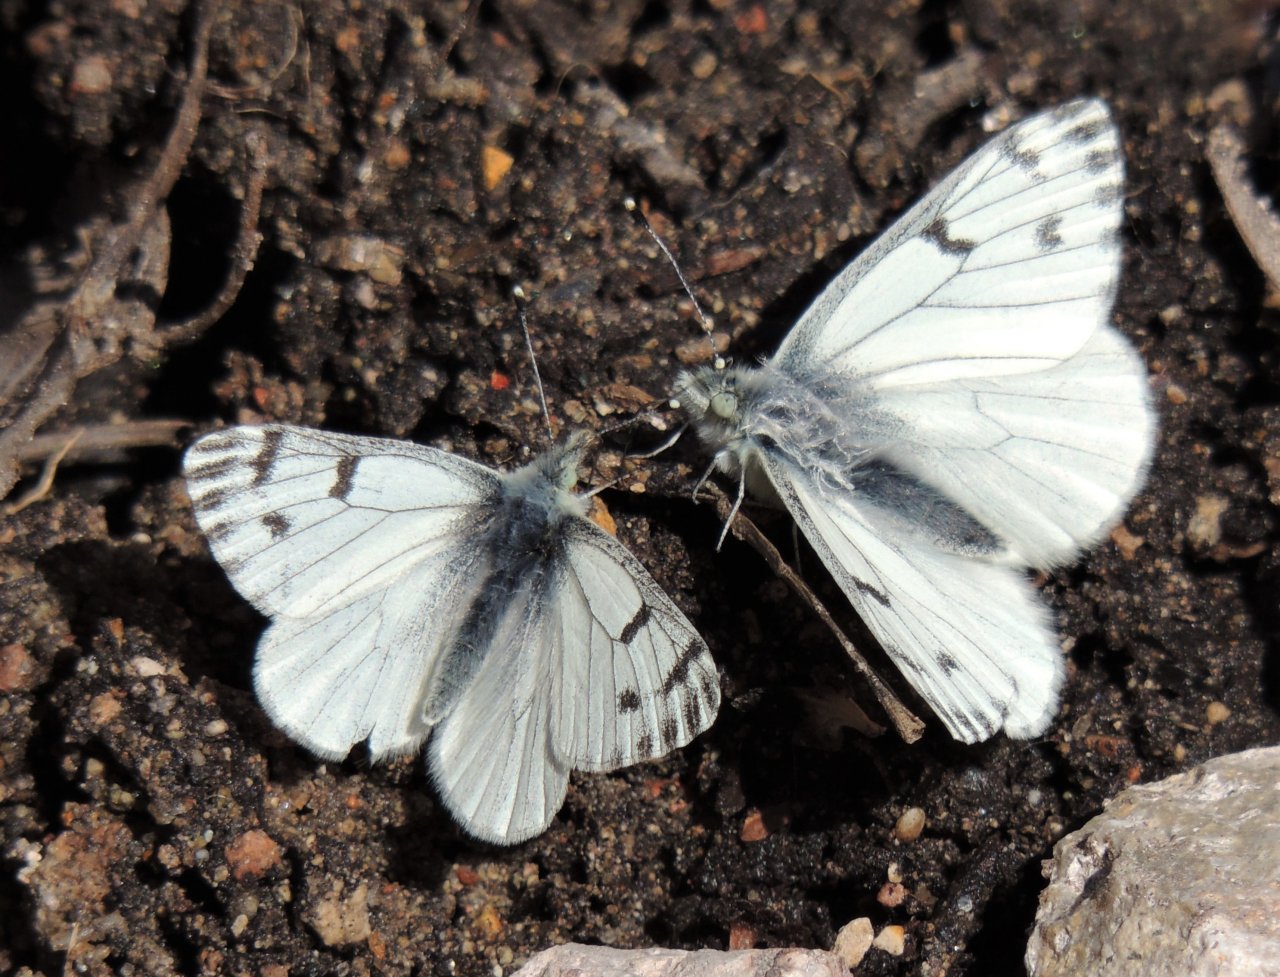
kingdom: Animalia
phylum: Arthropoda
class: Insecta
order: Lepidoptera
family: Pieridae
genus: Pontia
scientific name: Pontia sisymbrii
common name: Spring White
